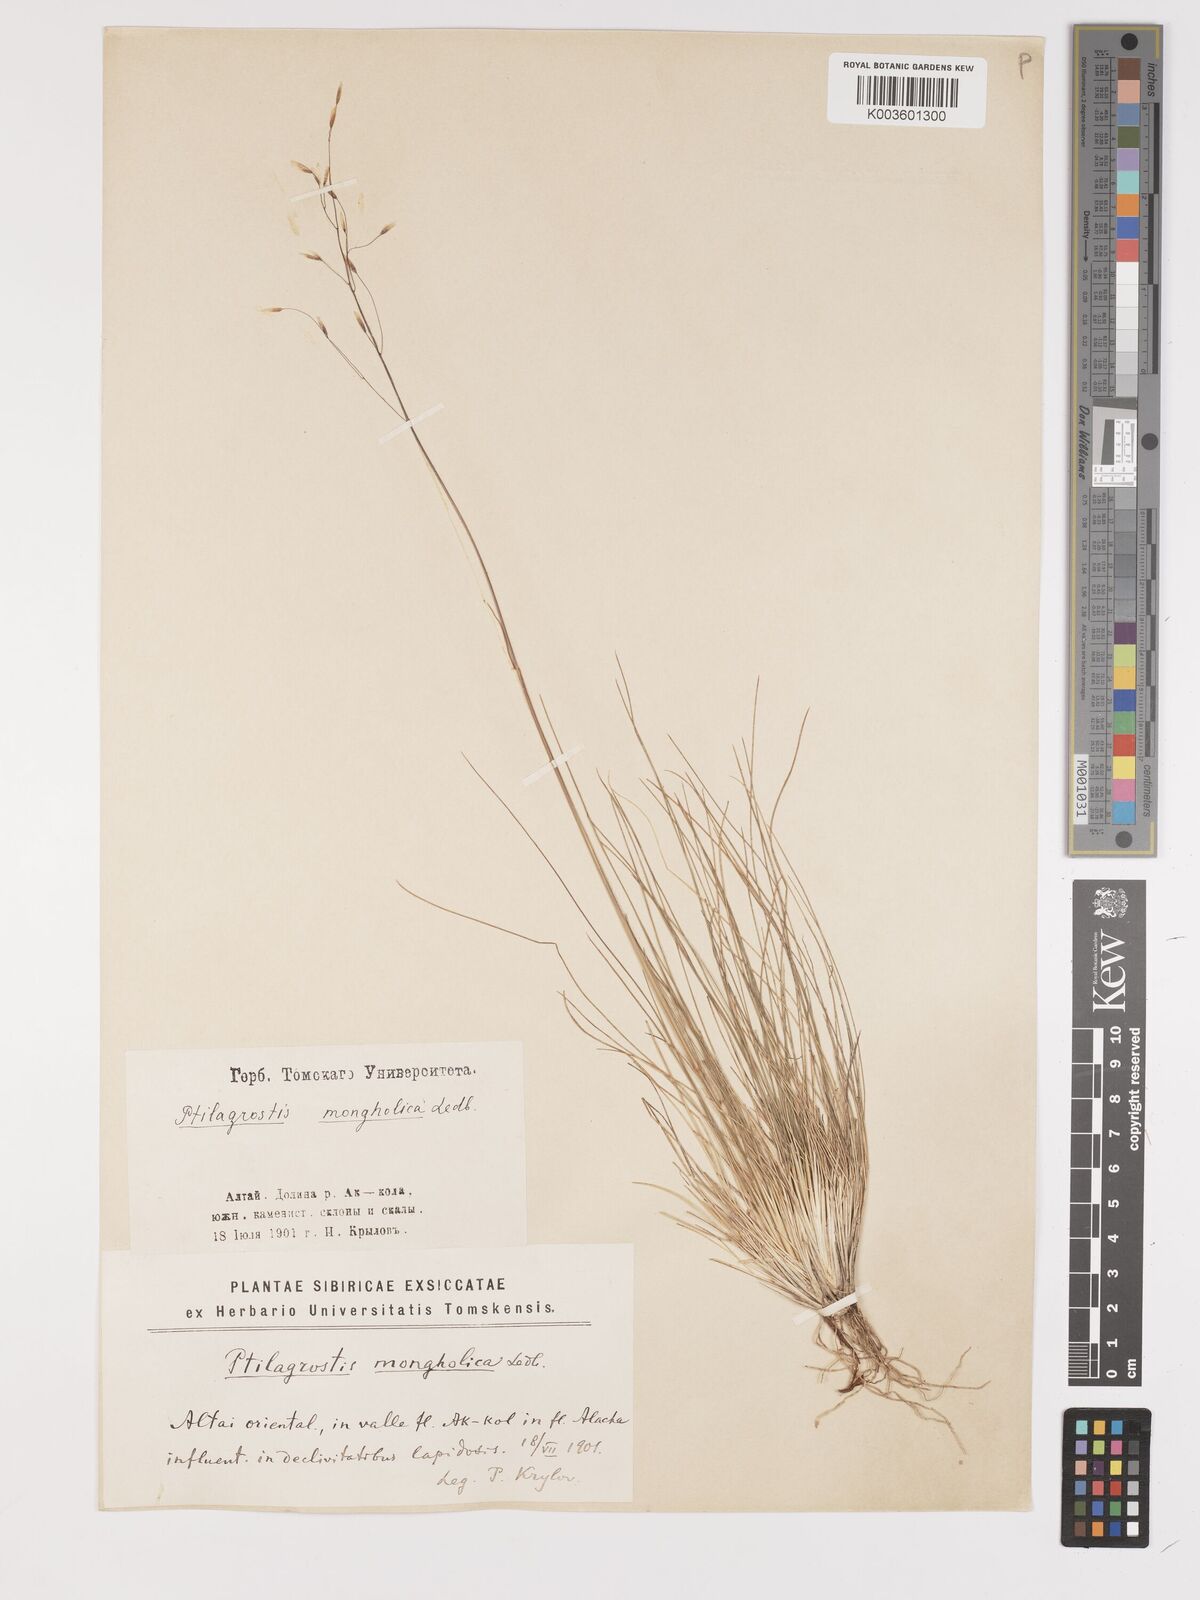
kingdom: Plantae
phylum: Tracheophyta
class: Liliopsida
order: Poales
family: Poaceae
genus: Ptilagrostis
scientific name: Ptilagrostis mongholica
